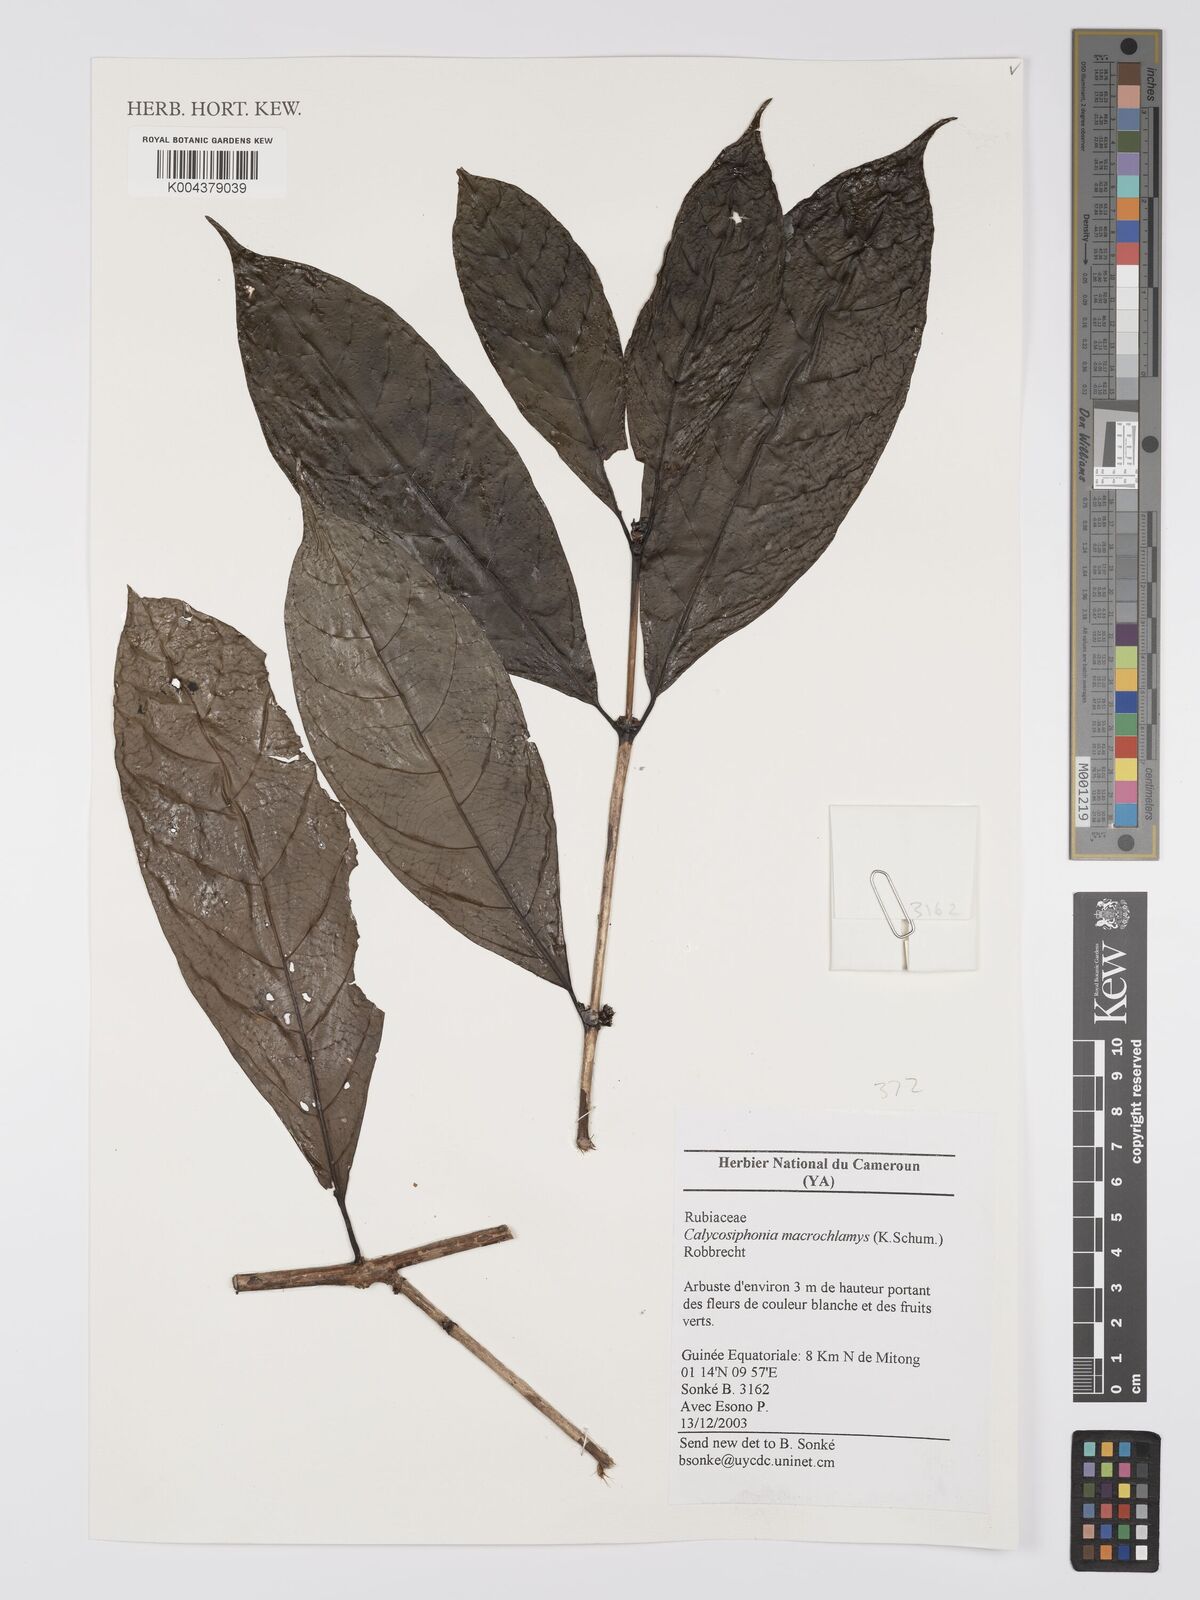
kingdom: Plantae
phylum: Tracheophyta
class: Magnoliopsida
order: Gentianales
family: Rubiaceae
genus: Calycosiphonia
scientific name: Calycosiphonia macrochlamys
